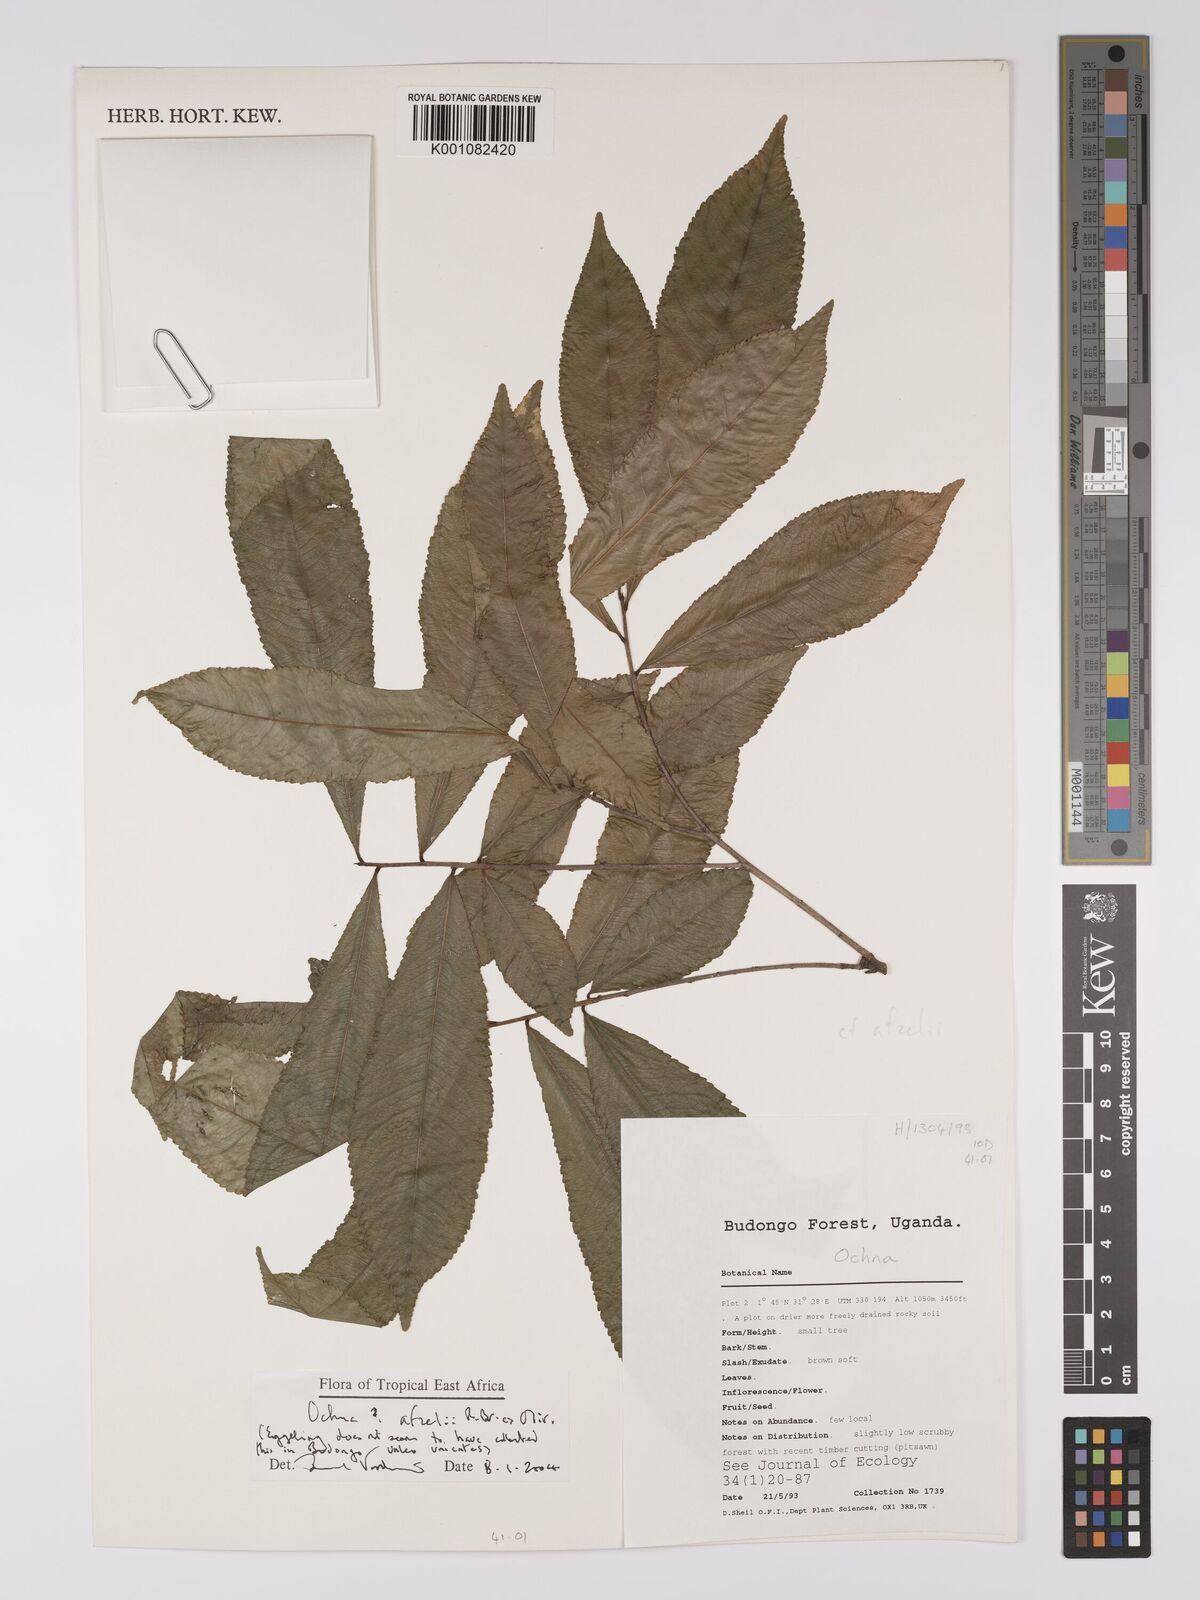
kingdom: Plantae
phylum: Tracheophyta
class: Magnoliopsida
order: Malpighiales
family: Ochnaceae
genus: Ochna
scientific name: Ochna afzelii
